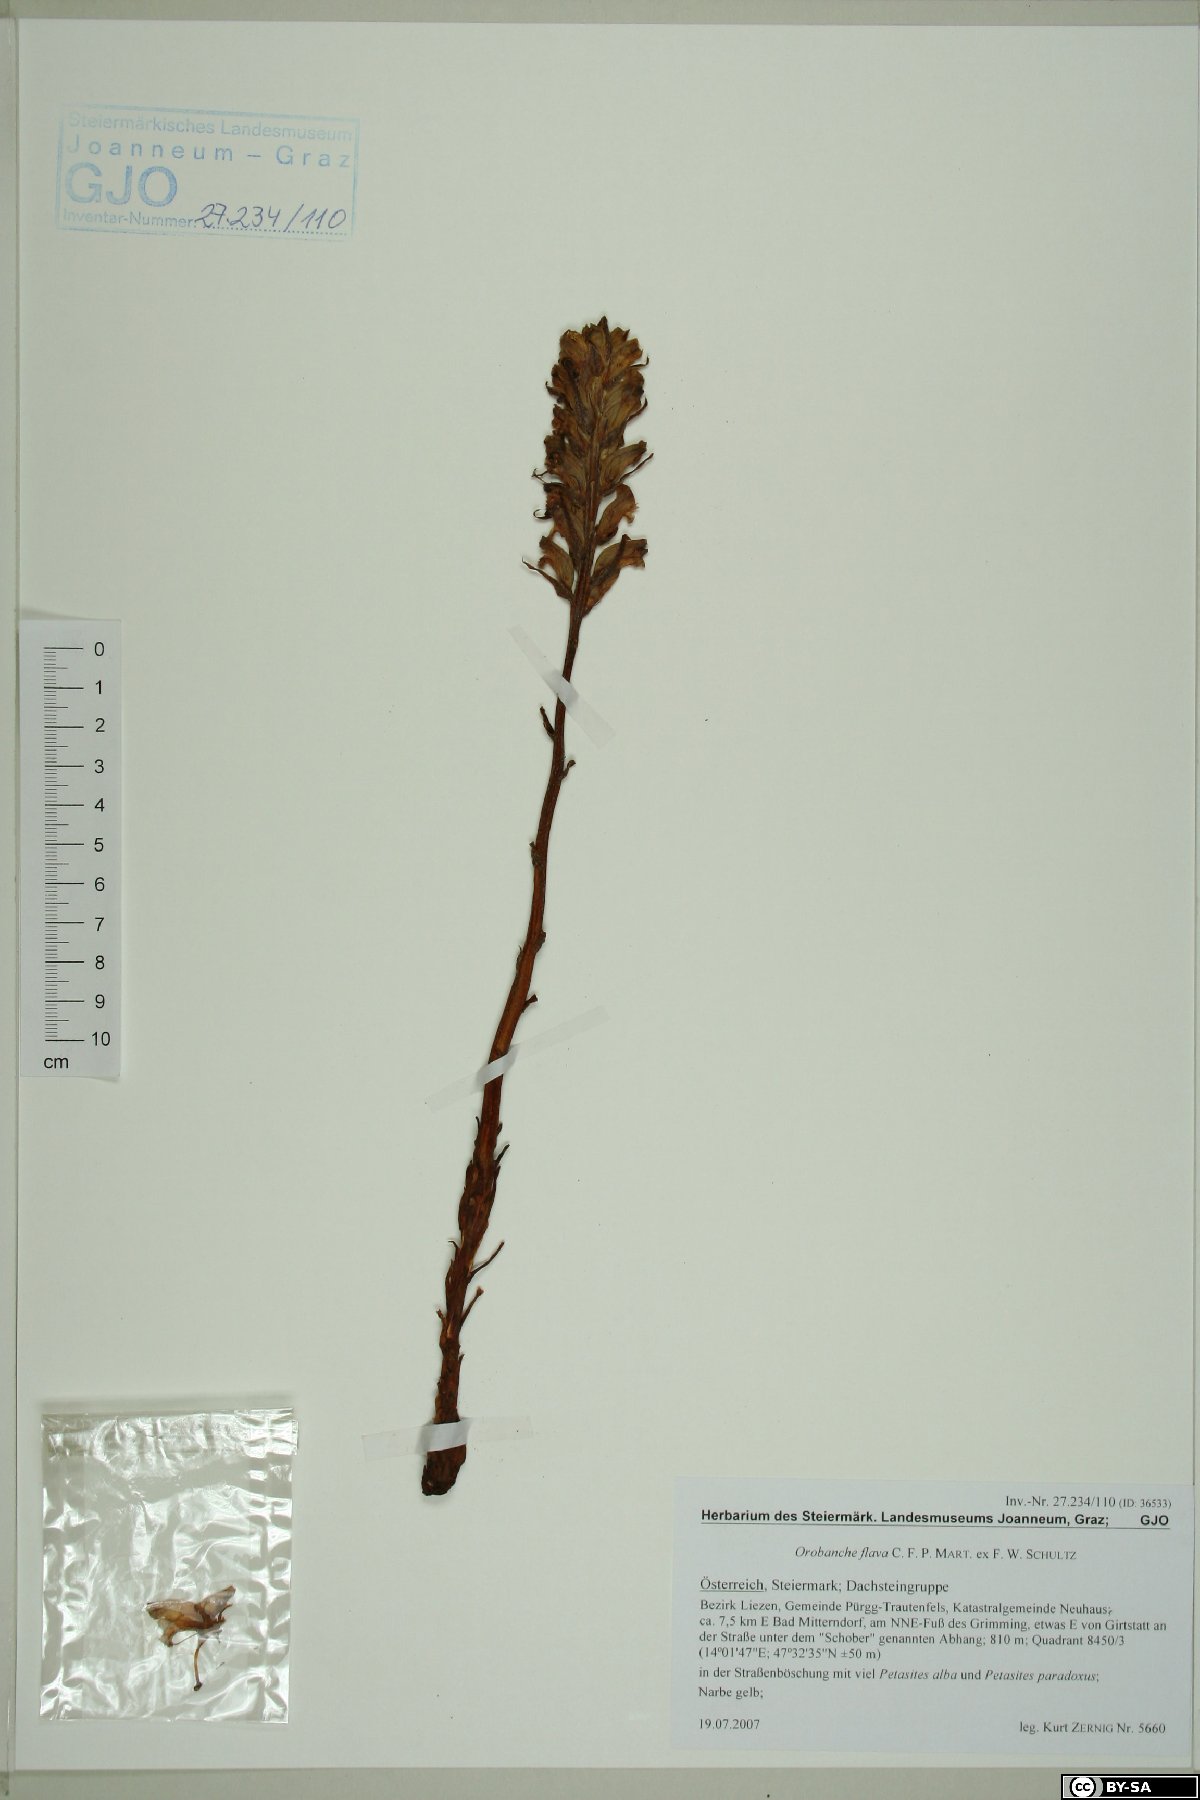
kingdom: Plantae
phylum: Tracheophyta
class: Magnoliopsida
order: Lamiales
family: Orobanchaceae
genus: Orobanche
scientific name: Orobanche flava
